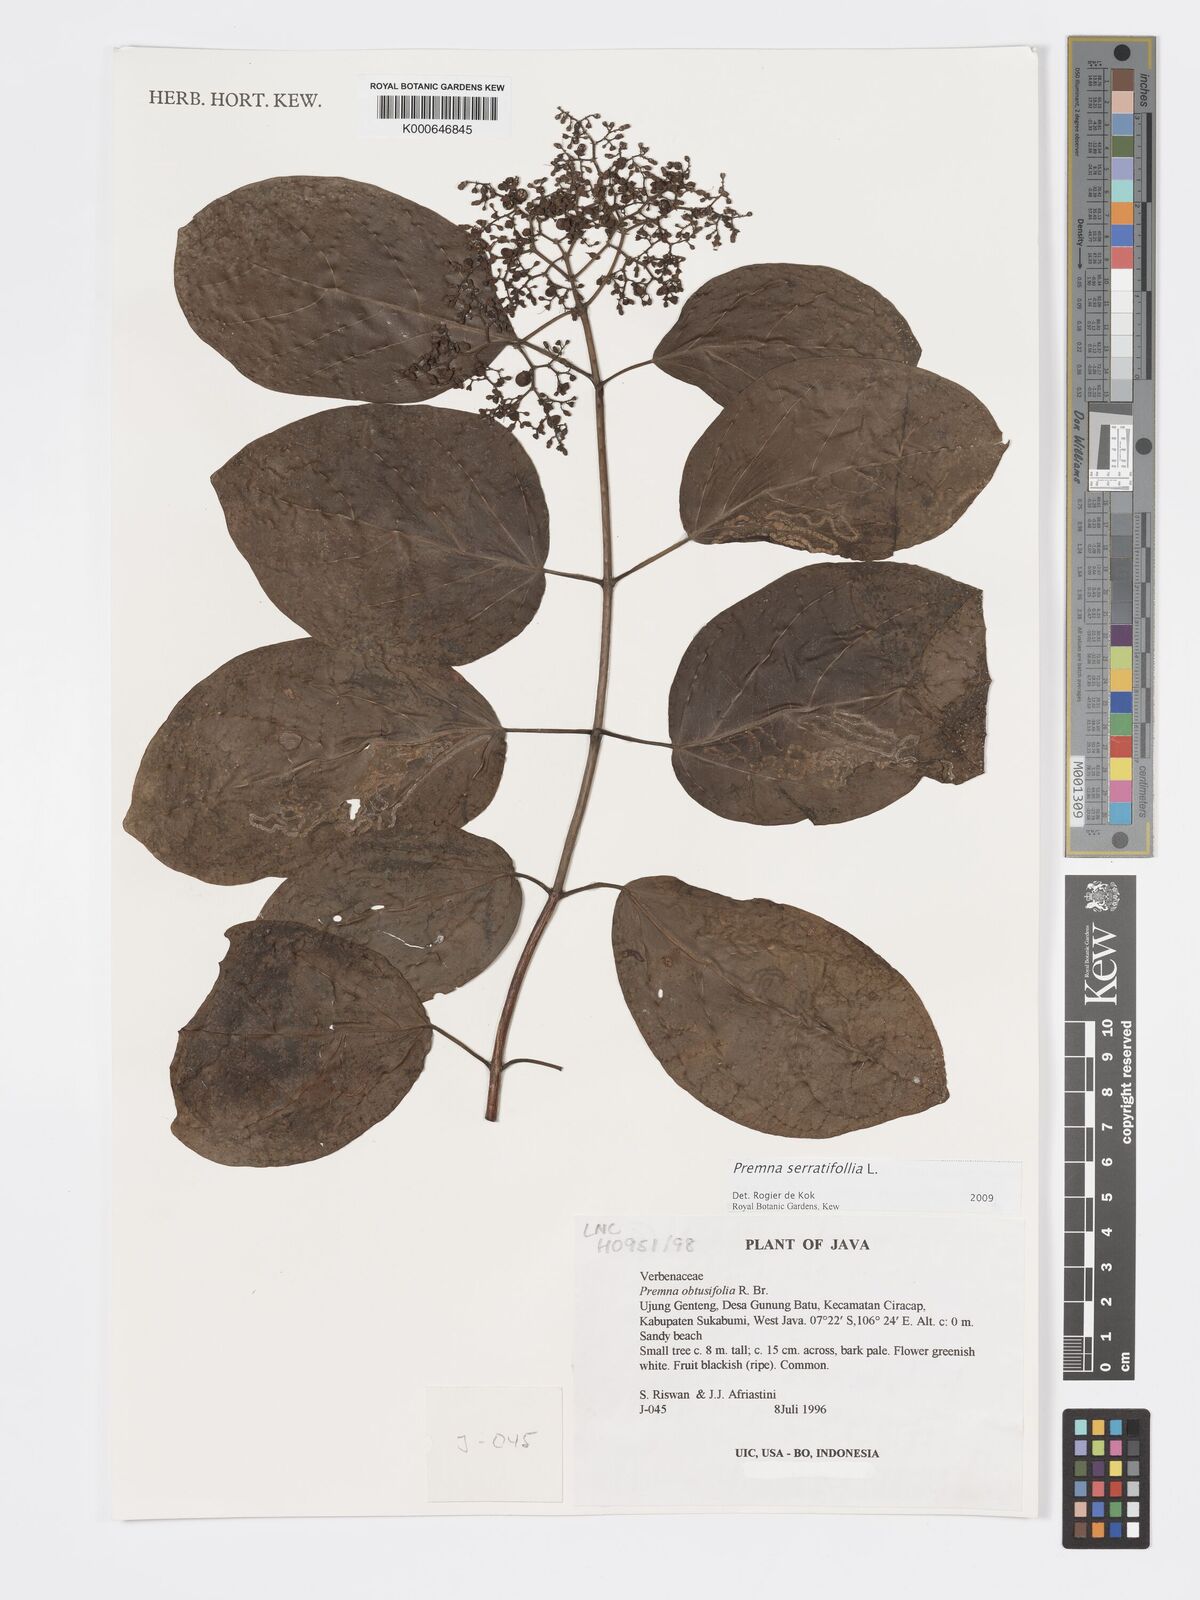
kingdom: Plantae
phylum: Tracheophyta
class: Magnoliopsida
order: Lamiales
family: Lamiaceae
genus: Premna
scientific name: Premna serratifolia
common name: Bastard guelder
